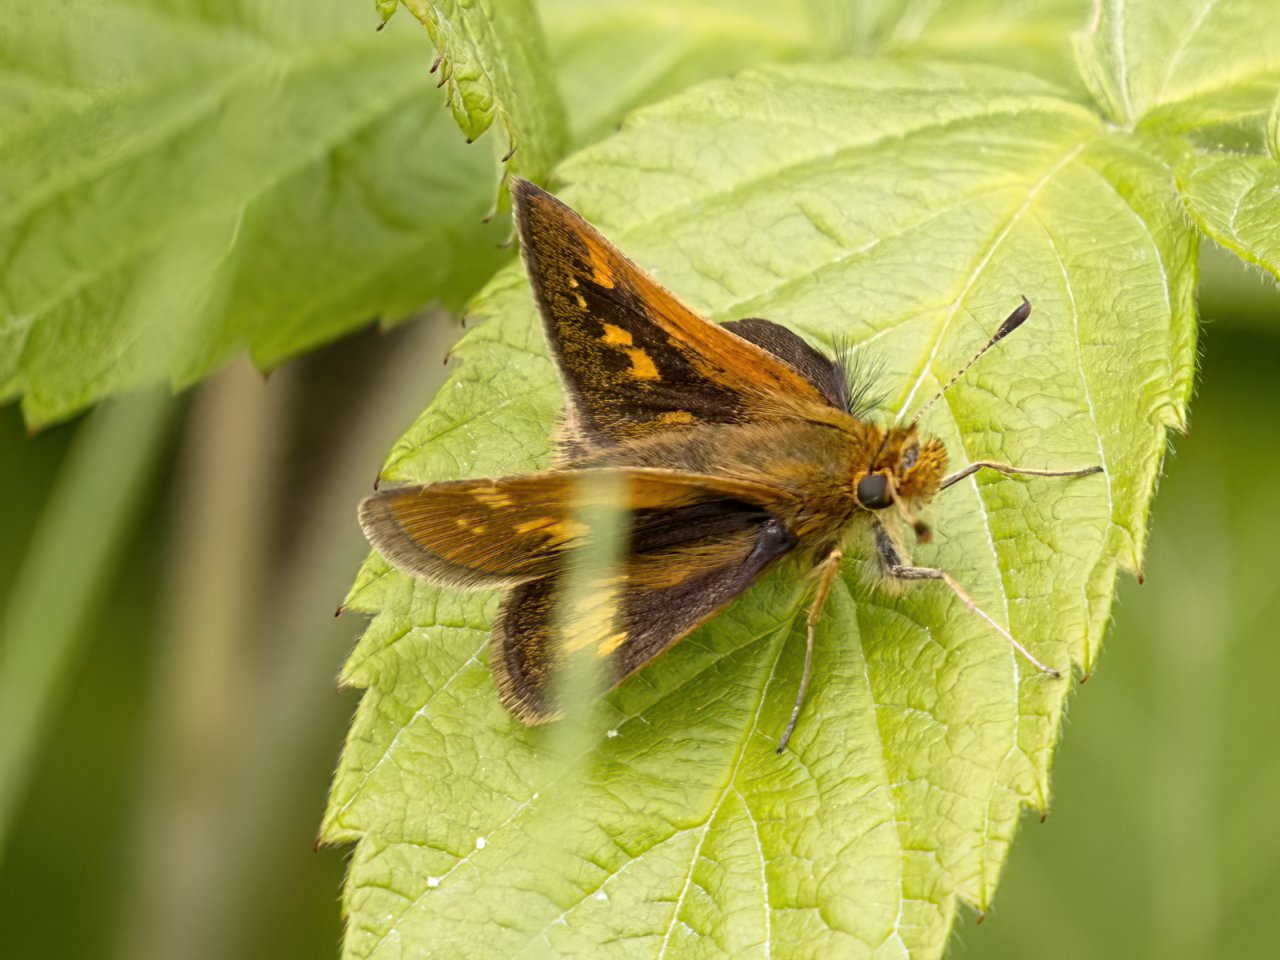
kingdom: Animalia
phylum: Arthropoda
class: Insecta
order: Lepidoptera
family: Hesperiidae
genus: Polites
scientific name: Polites coras
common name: Peck's Skipper
